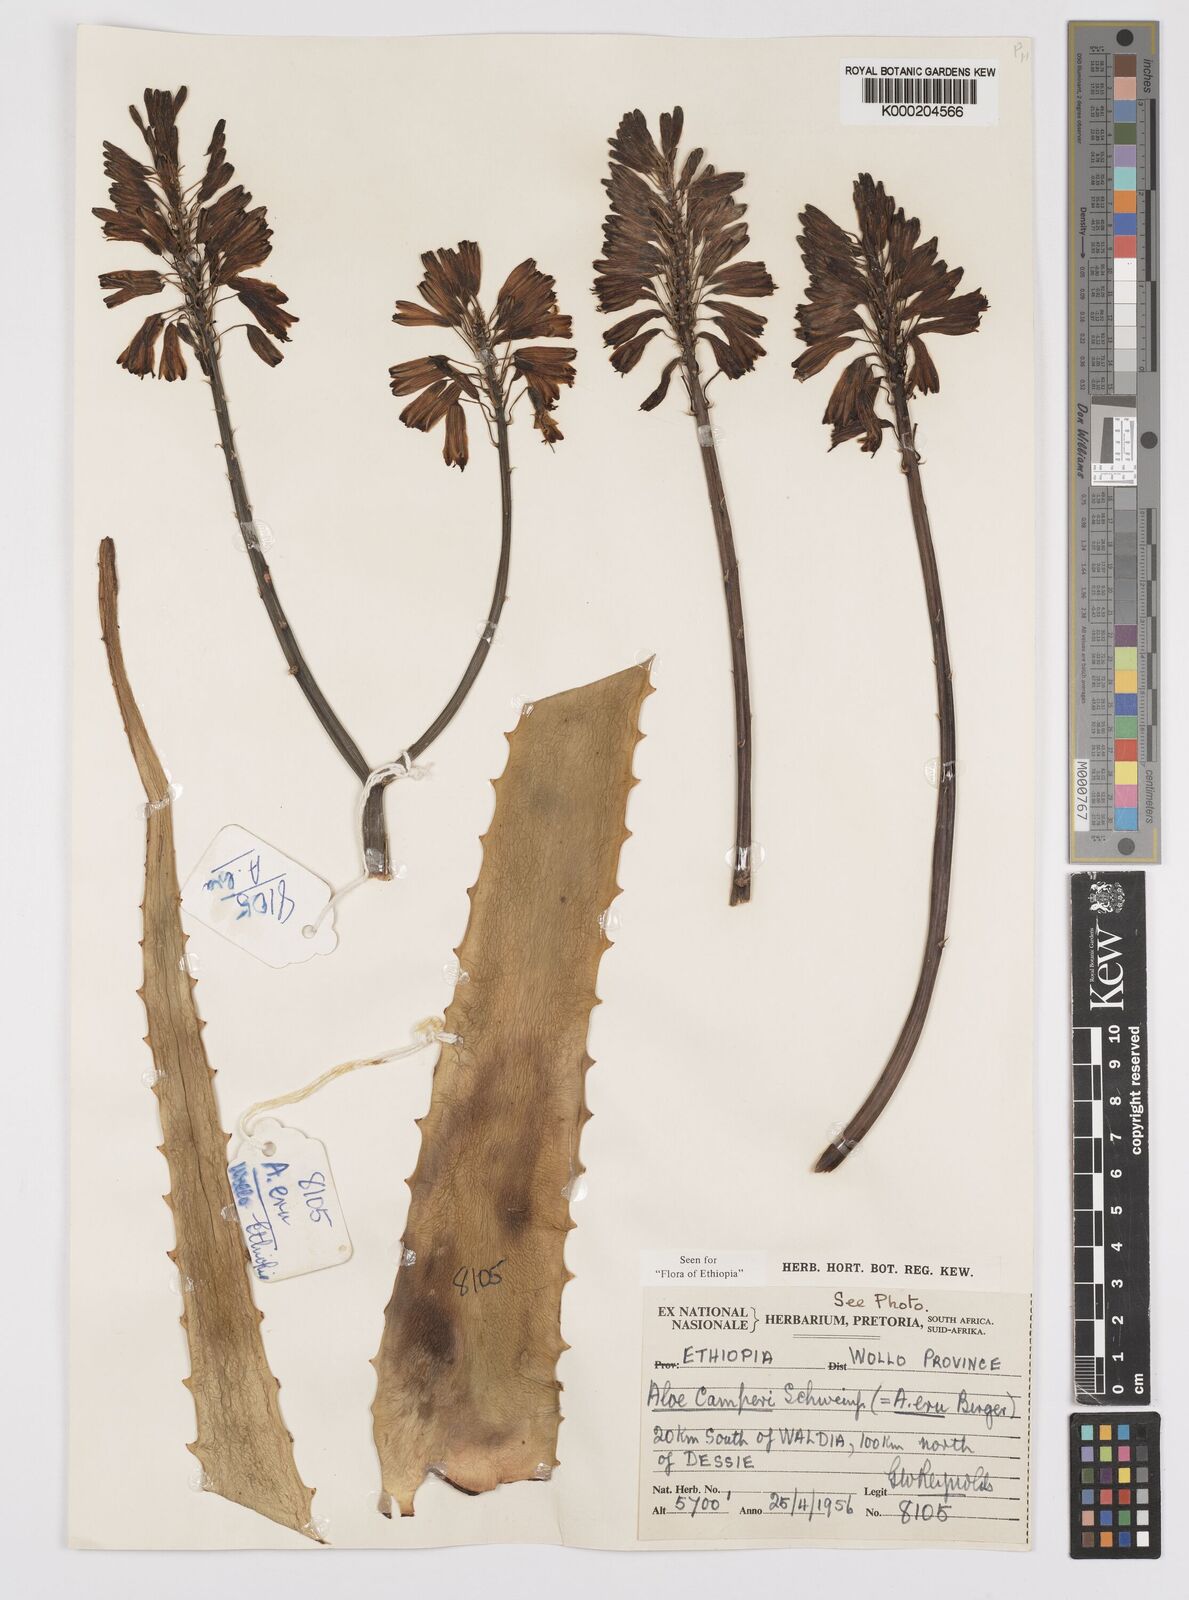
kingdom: Plantae
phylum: Tracheophyta
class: Liliopsida
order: Asparagales
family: Asphodelaceae
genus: Aloe
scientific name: Aloe camperi
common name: Camper's aloe
